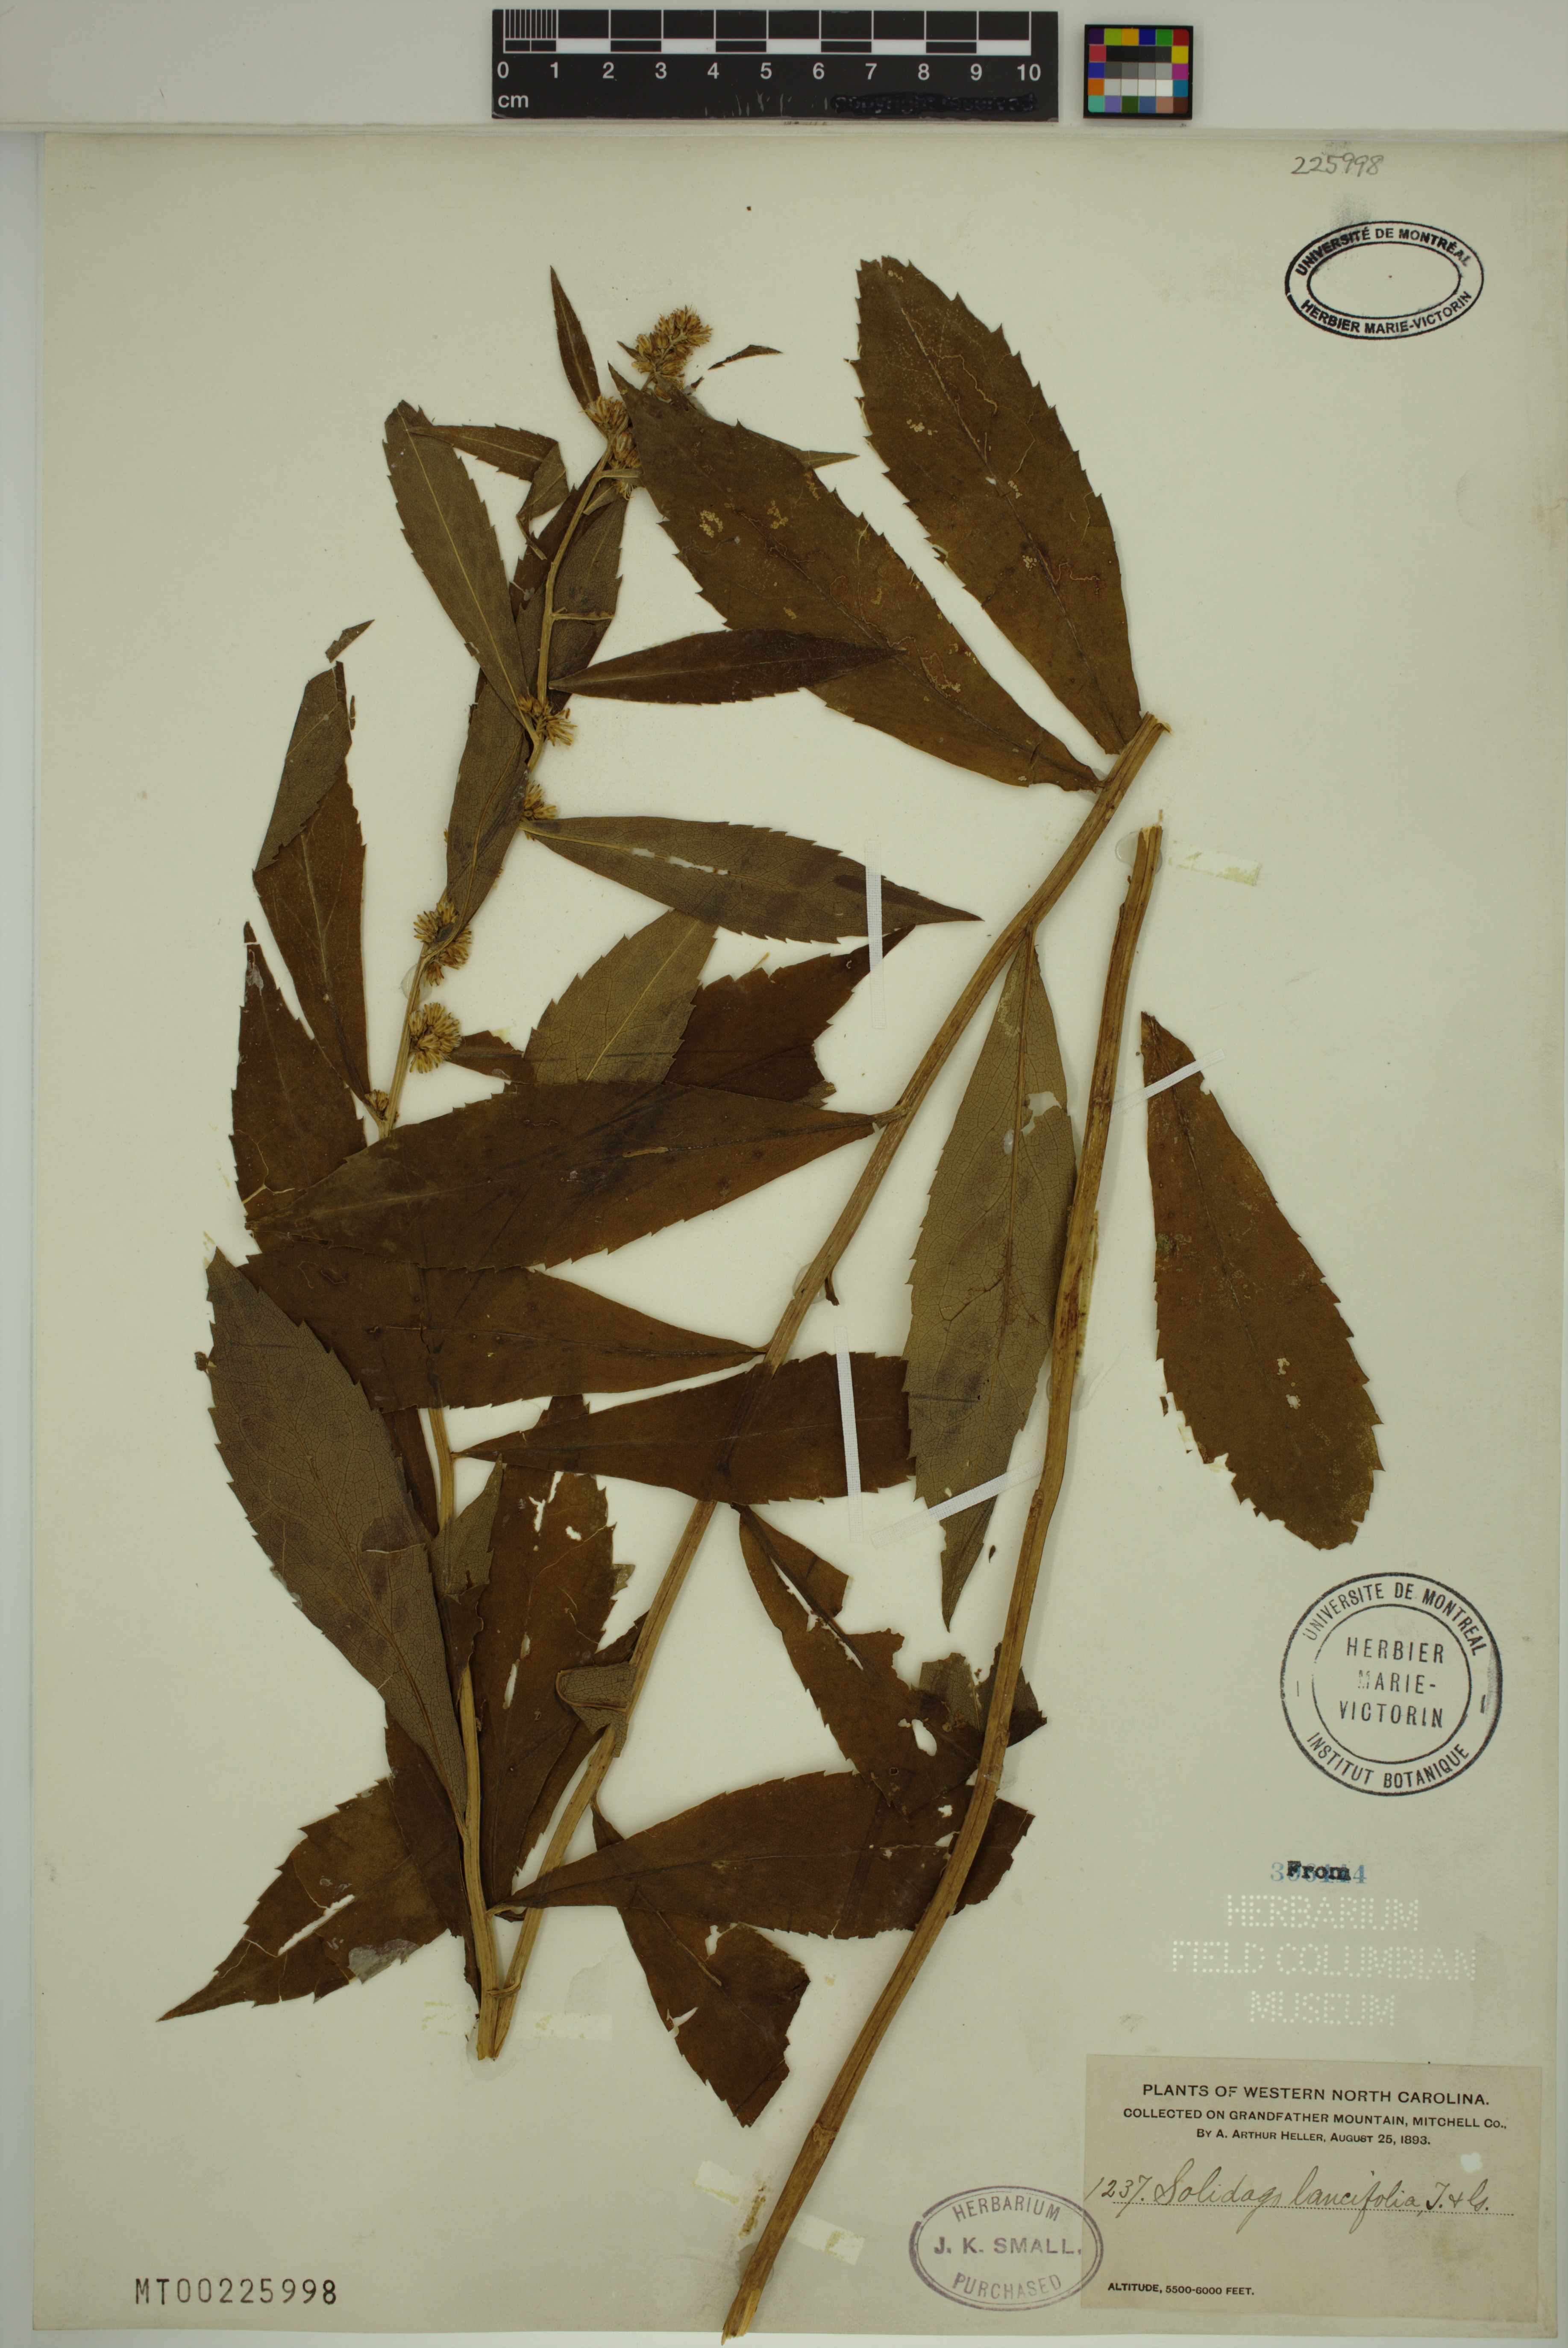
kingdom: Plantae
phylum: Tracheophyta
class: Magnoliopsida
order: Asterales
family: Asteraceae
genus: Solidago
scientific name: Solidago lancifolia
